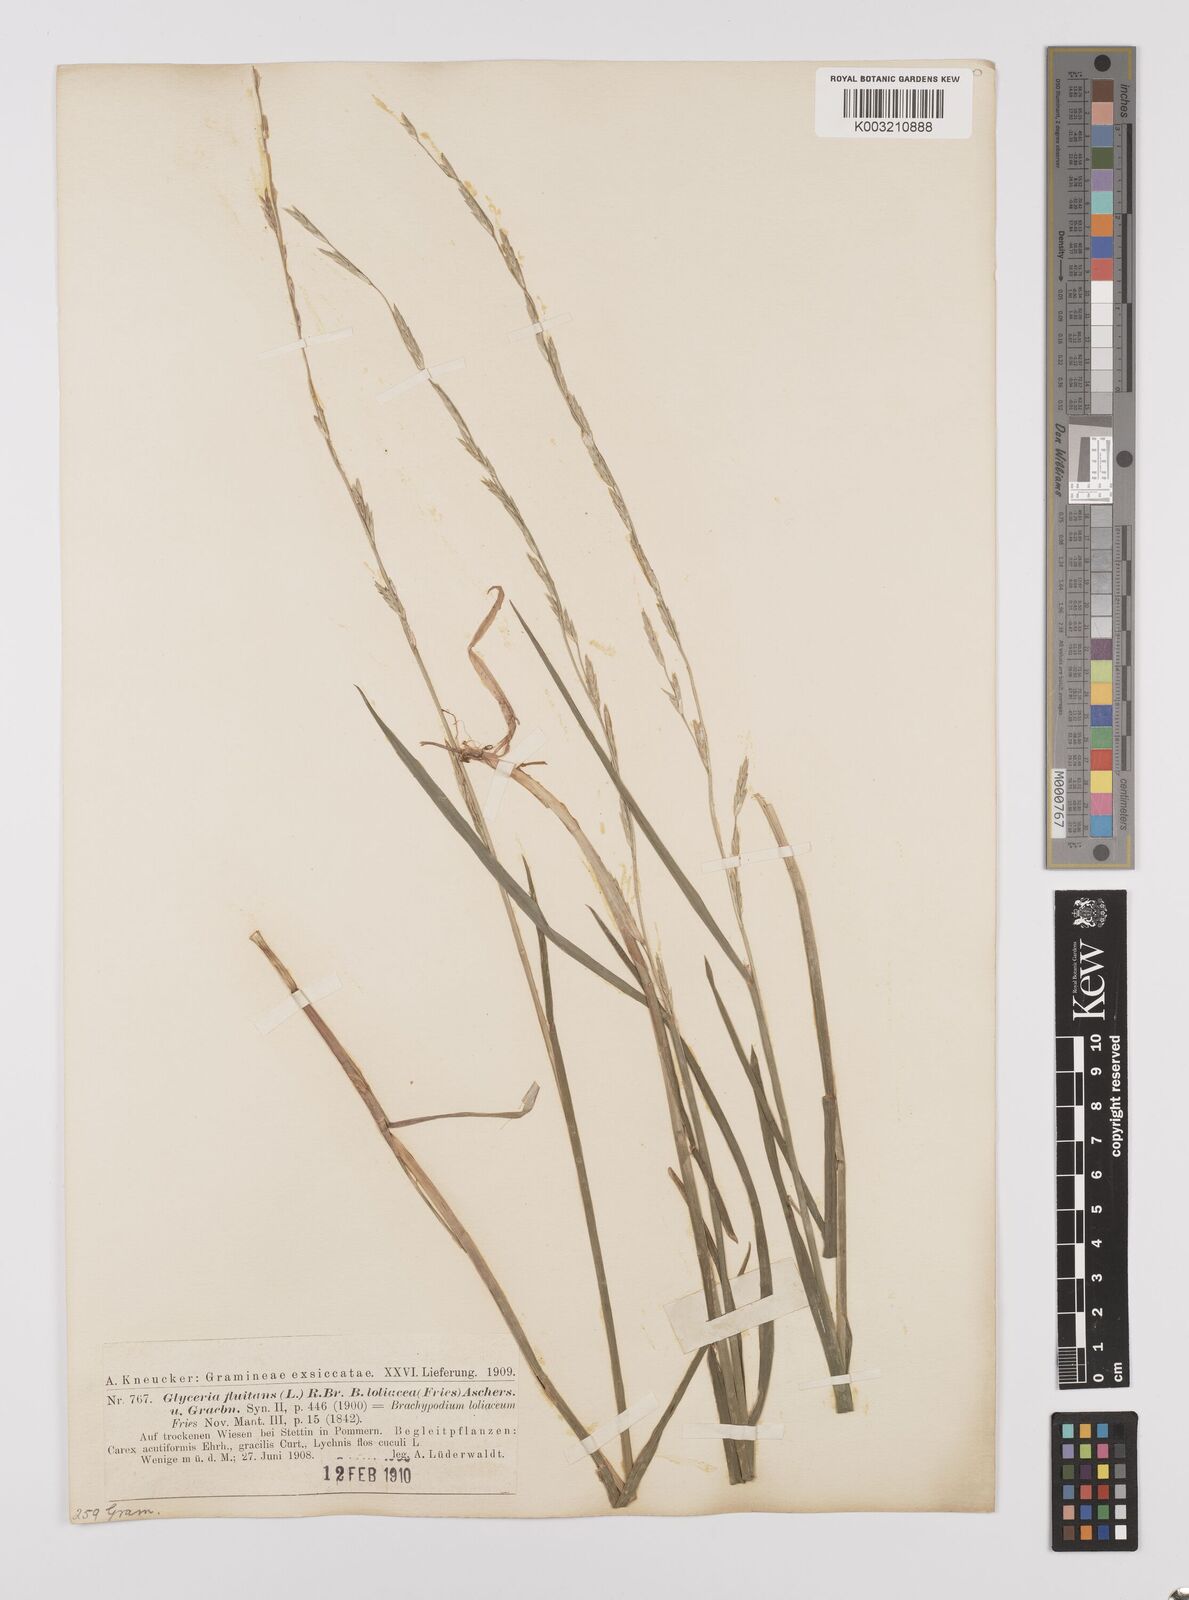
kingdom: Plantae
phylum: Tracheophyta
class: Liliopsida
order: Poales
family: Poaceae
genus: Glyceria
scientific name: Glyceria fluitans
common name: Floating sweet-grass
